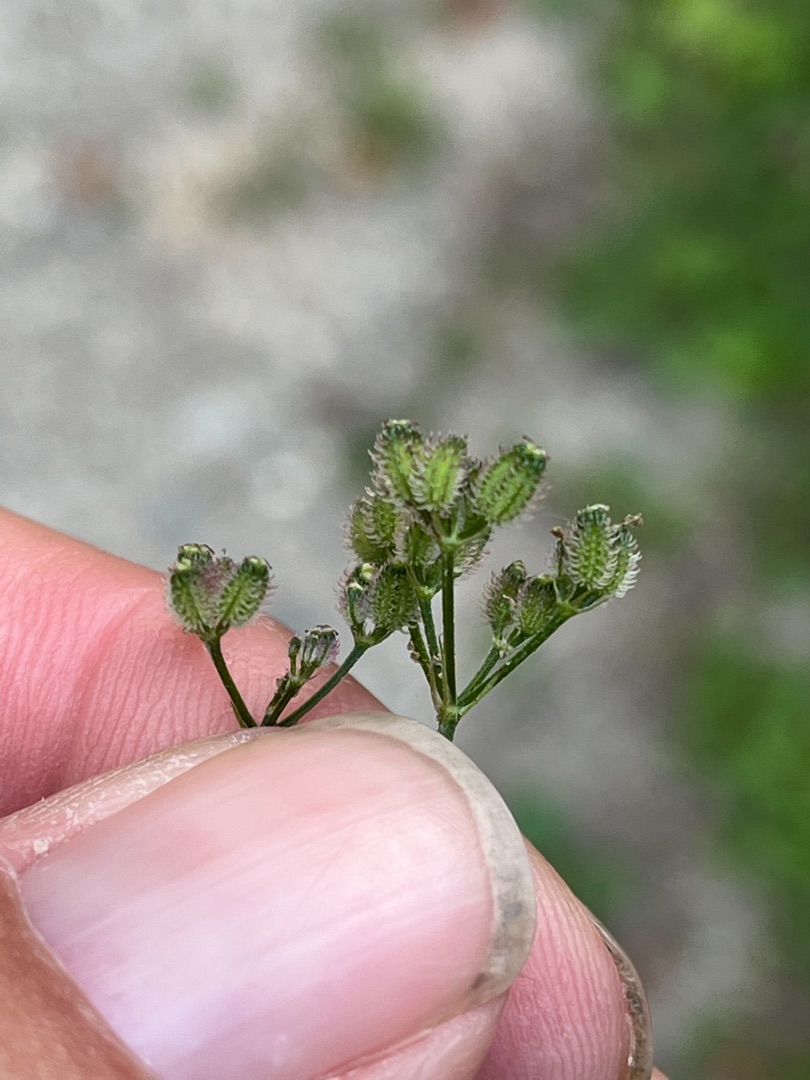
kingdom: Plantae
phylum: Tracheophyta
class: Magnoliopsida
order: Apiales
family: Apiaceae
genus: Torilis
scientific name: Torilis japonica
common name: Hvas randfrø
